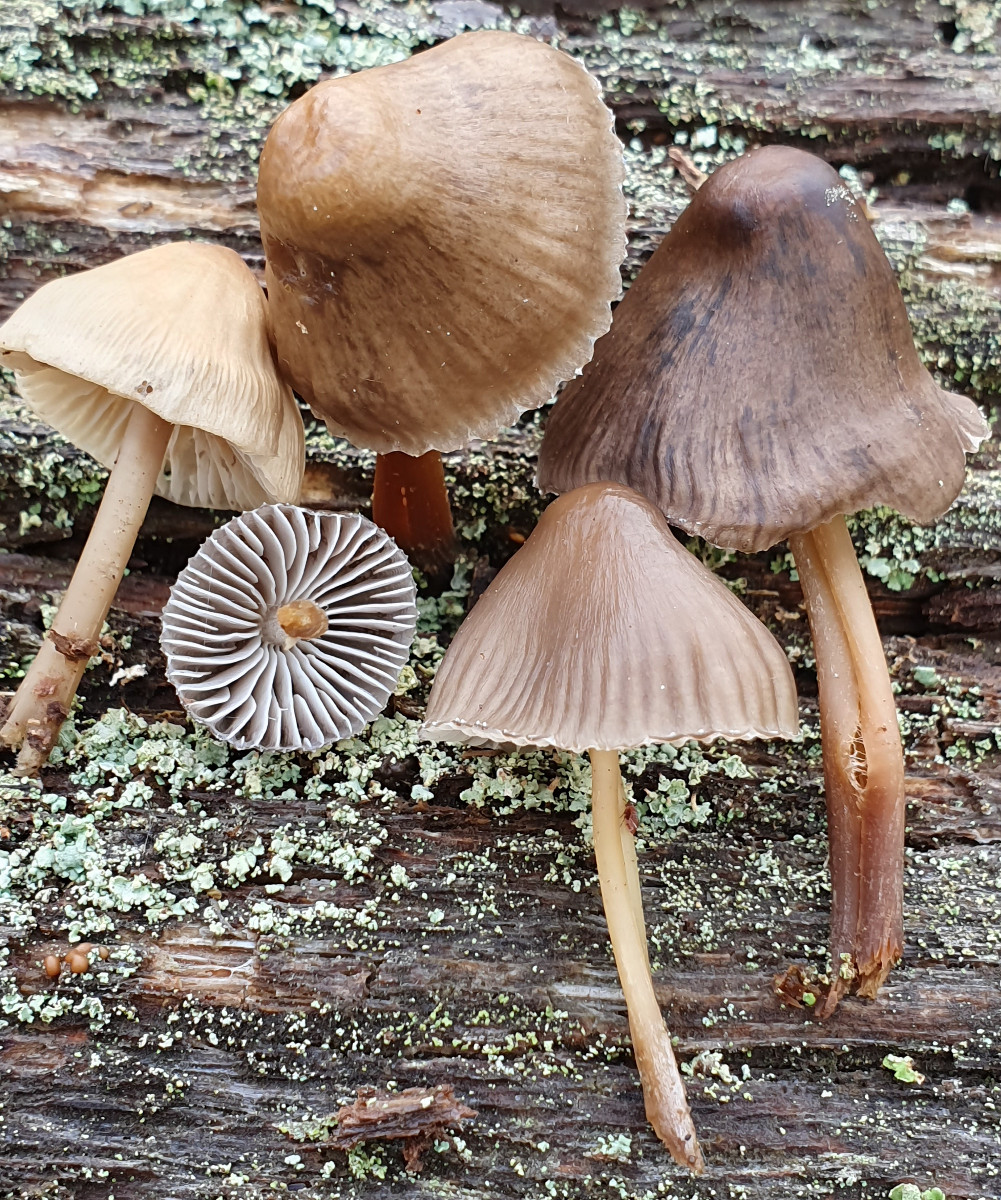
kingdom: Fungi
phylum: Basidiomycota
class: Agaricomycetes
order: Agaricales
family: Mycenaceae
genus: Mycena
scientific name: Mycena inclinata
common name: nikkende huesvamp
